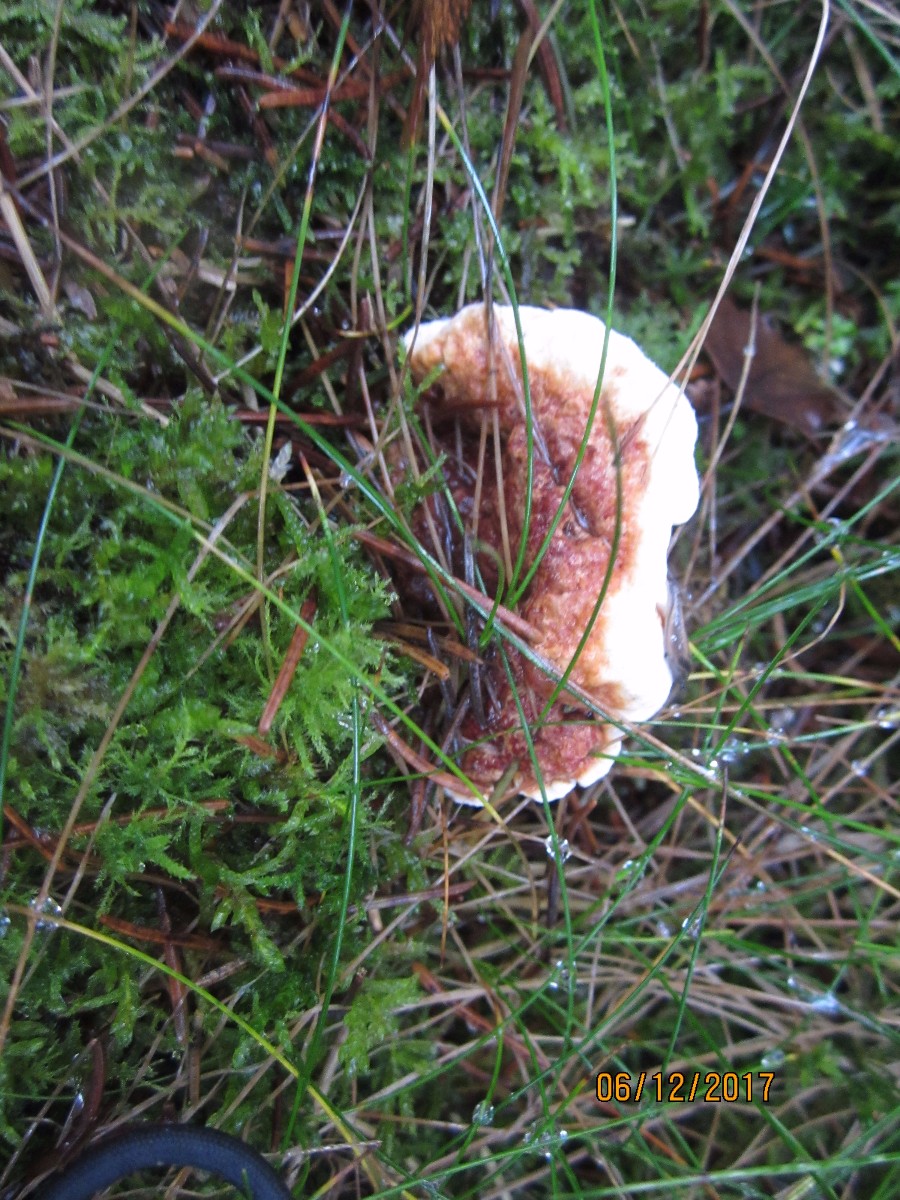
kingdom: Fungi
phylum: Basidiomycota
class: Agaricomycetes
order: Russulales
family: Bondarzewiaceae
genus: Heterobasidion
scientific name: Heterobasidion annosum
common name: almindelig rodfordærver
